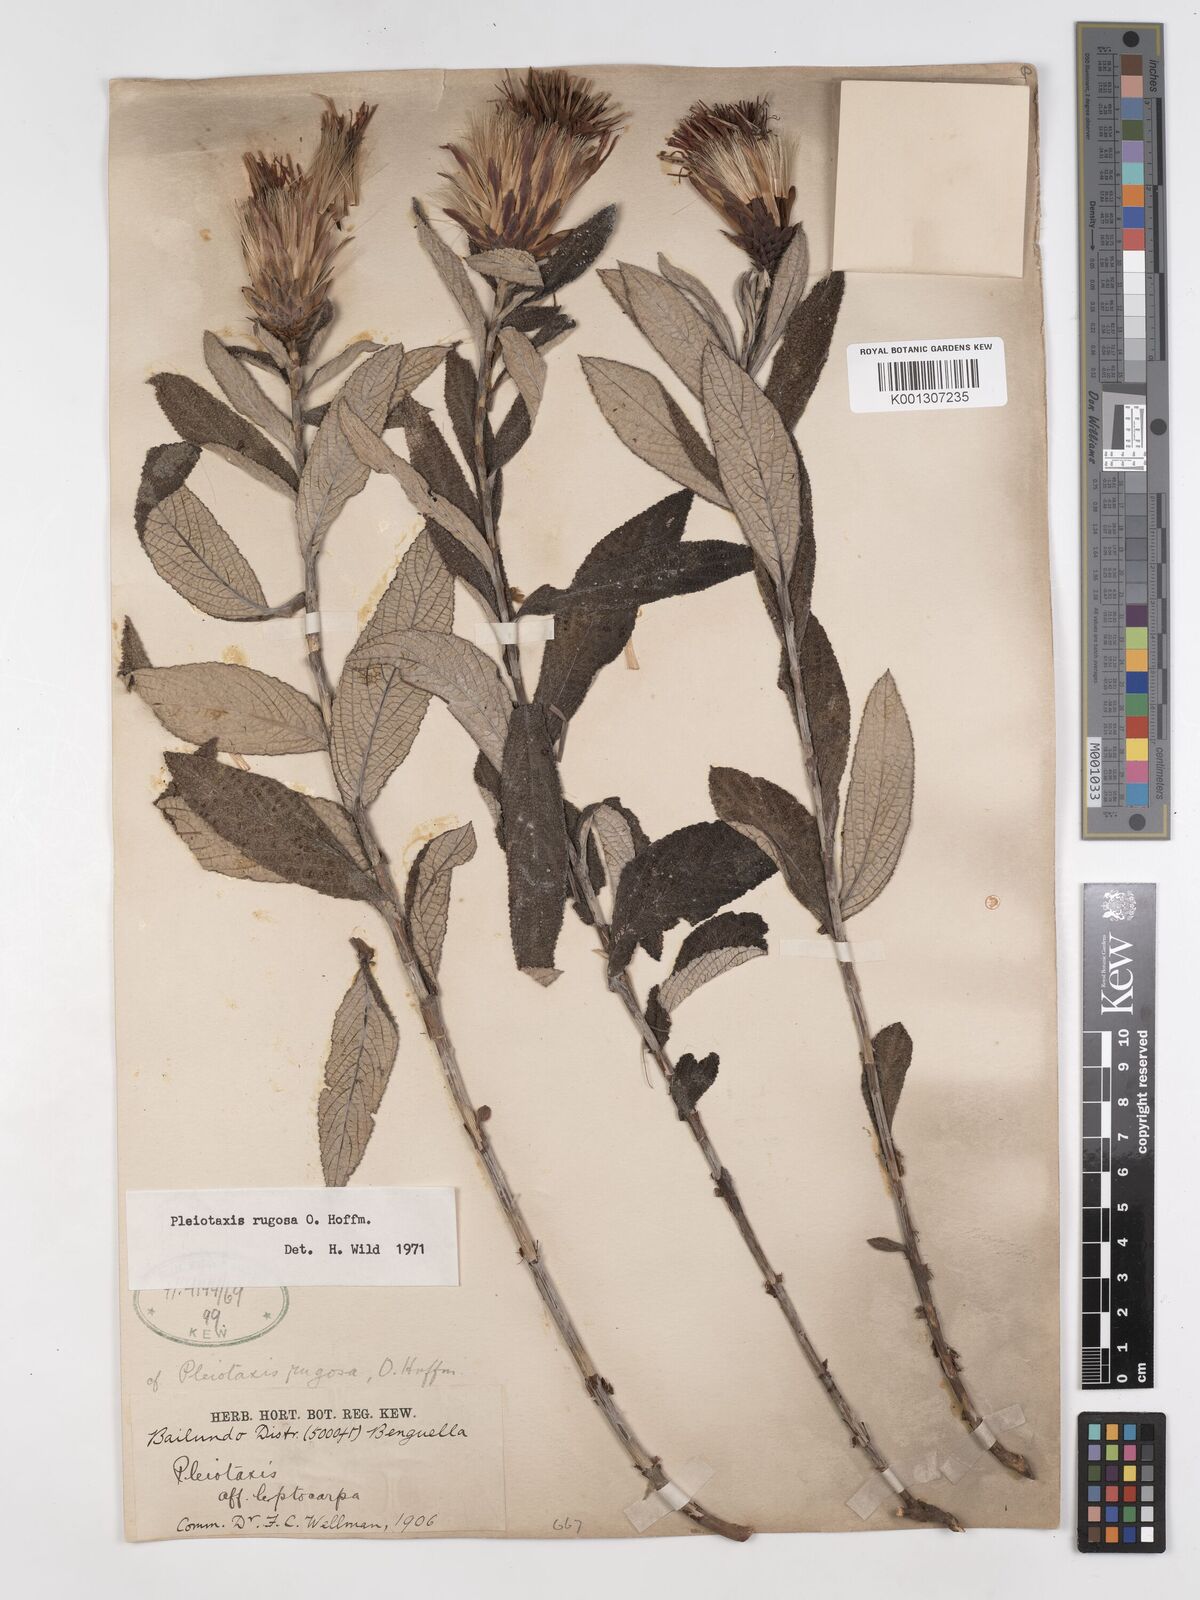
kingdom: Plantae
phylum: Tracheophyta
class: Magnoliopsida
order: Asterales
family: Asteraceae
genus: Pleiotaxis
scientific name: Pleiotaxis rugosa
